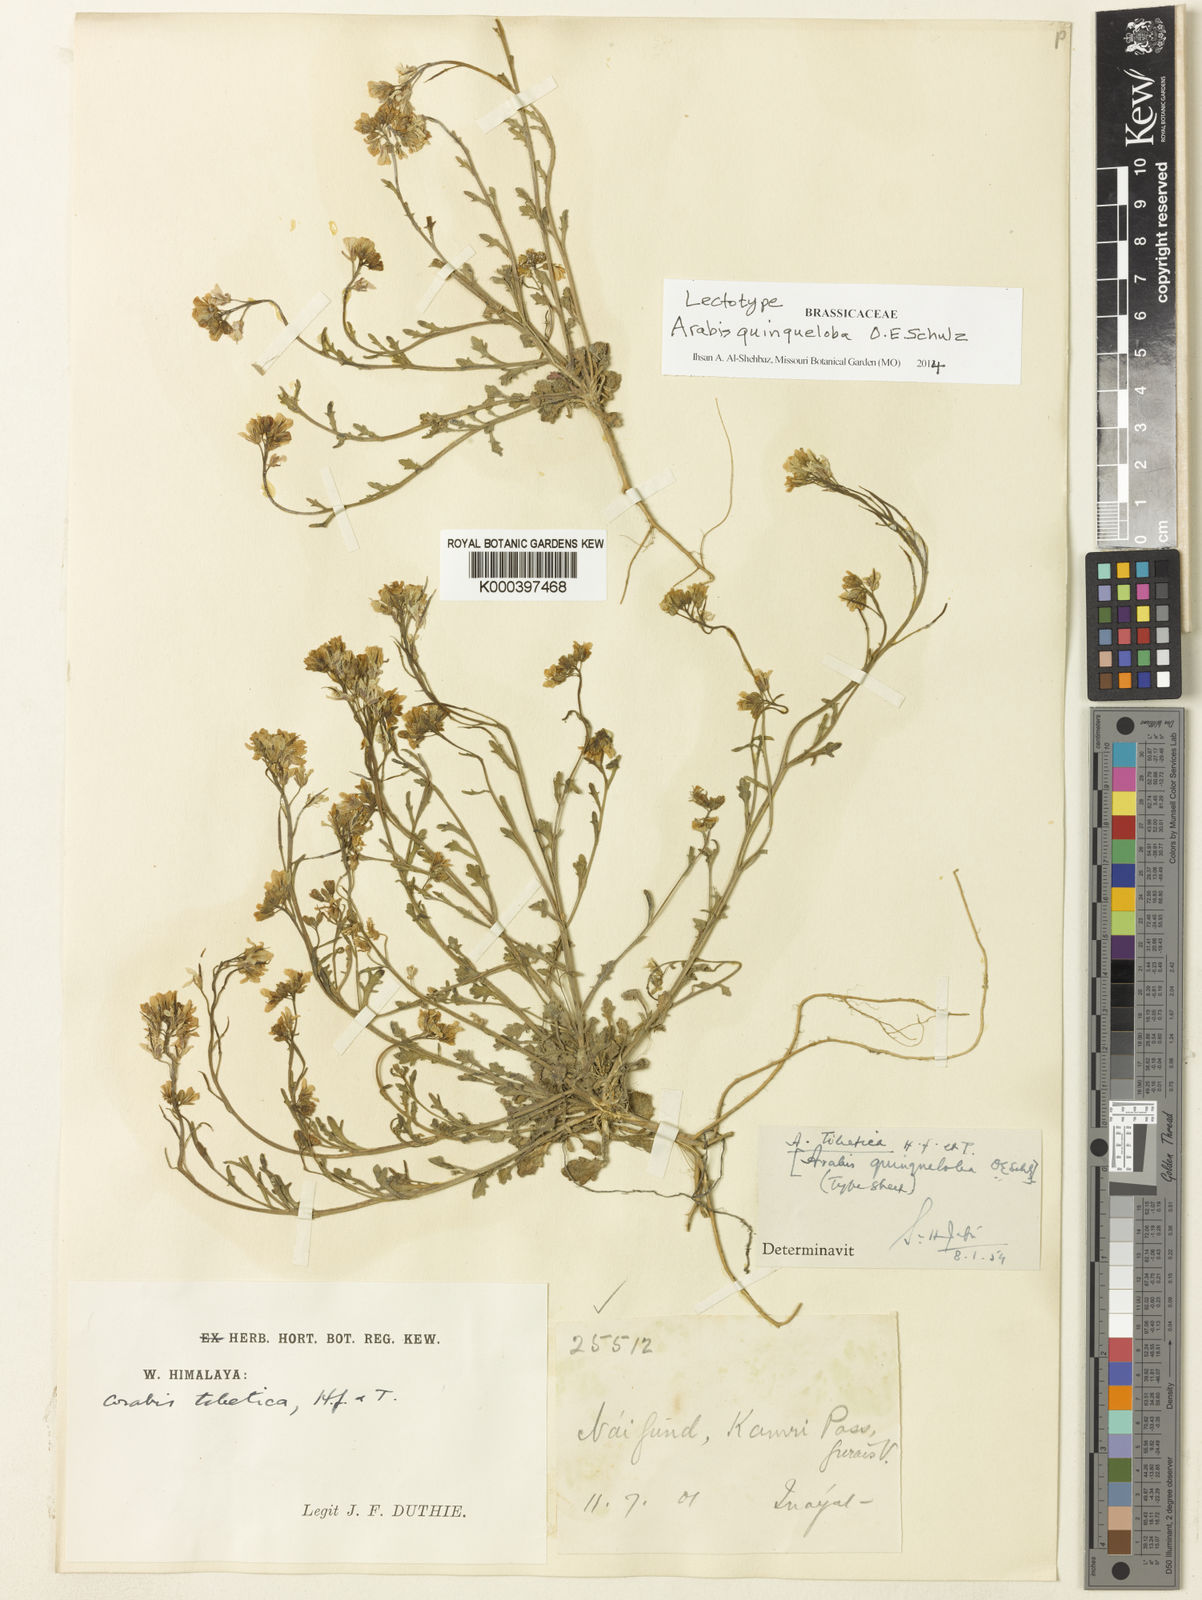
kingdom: Plantae
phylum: Tracheophyta
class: Magnoliopsida
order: Brassicales
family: Brassicaceae
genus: Arabis
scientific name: Arabis quinqueloba
